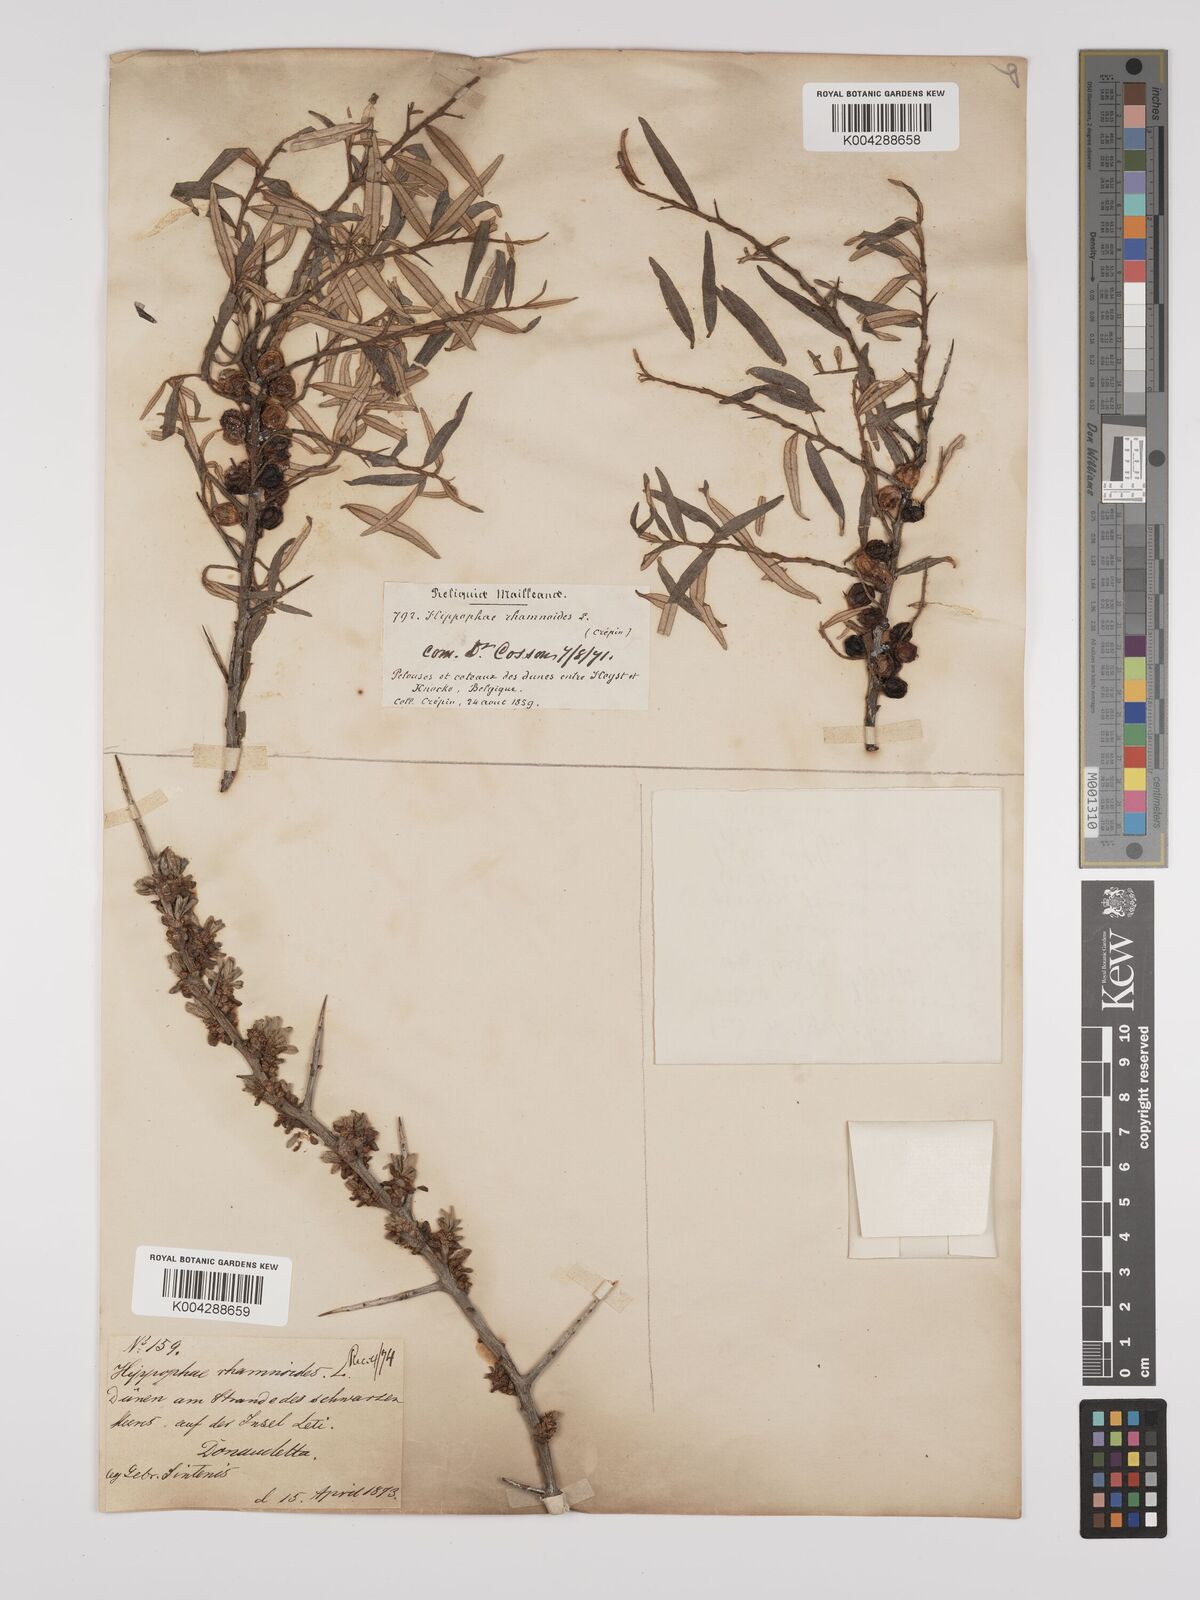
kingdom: Plantae
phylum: Tracheophyta
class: Magnoliopsida
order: Rosales
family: Elaeagnaceae
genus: Hippophae
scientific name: Hippophae rhamnoides
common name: Sea-buckthorn
